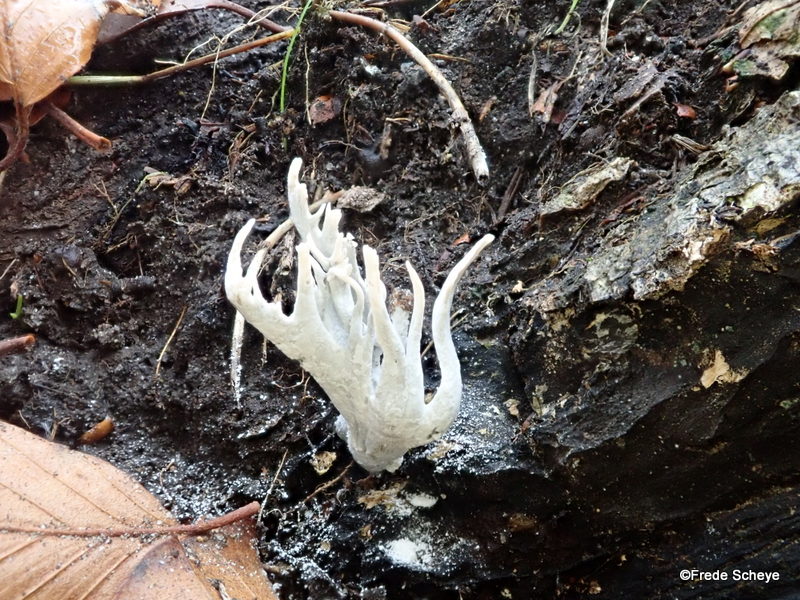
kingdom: Fungi
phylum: Ascomycota
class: Sordariomycetes
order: Xylariales
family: Xylariaceae
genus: Xylaria
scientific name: Xylaria hypoxylon
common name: grenet stødsvamp
